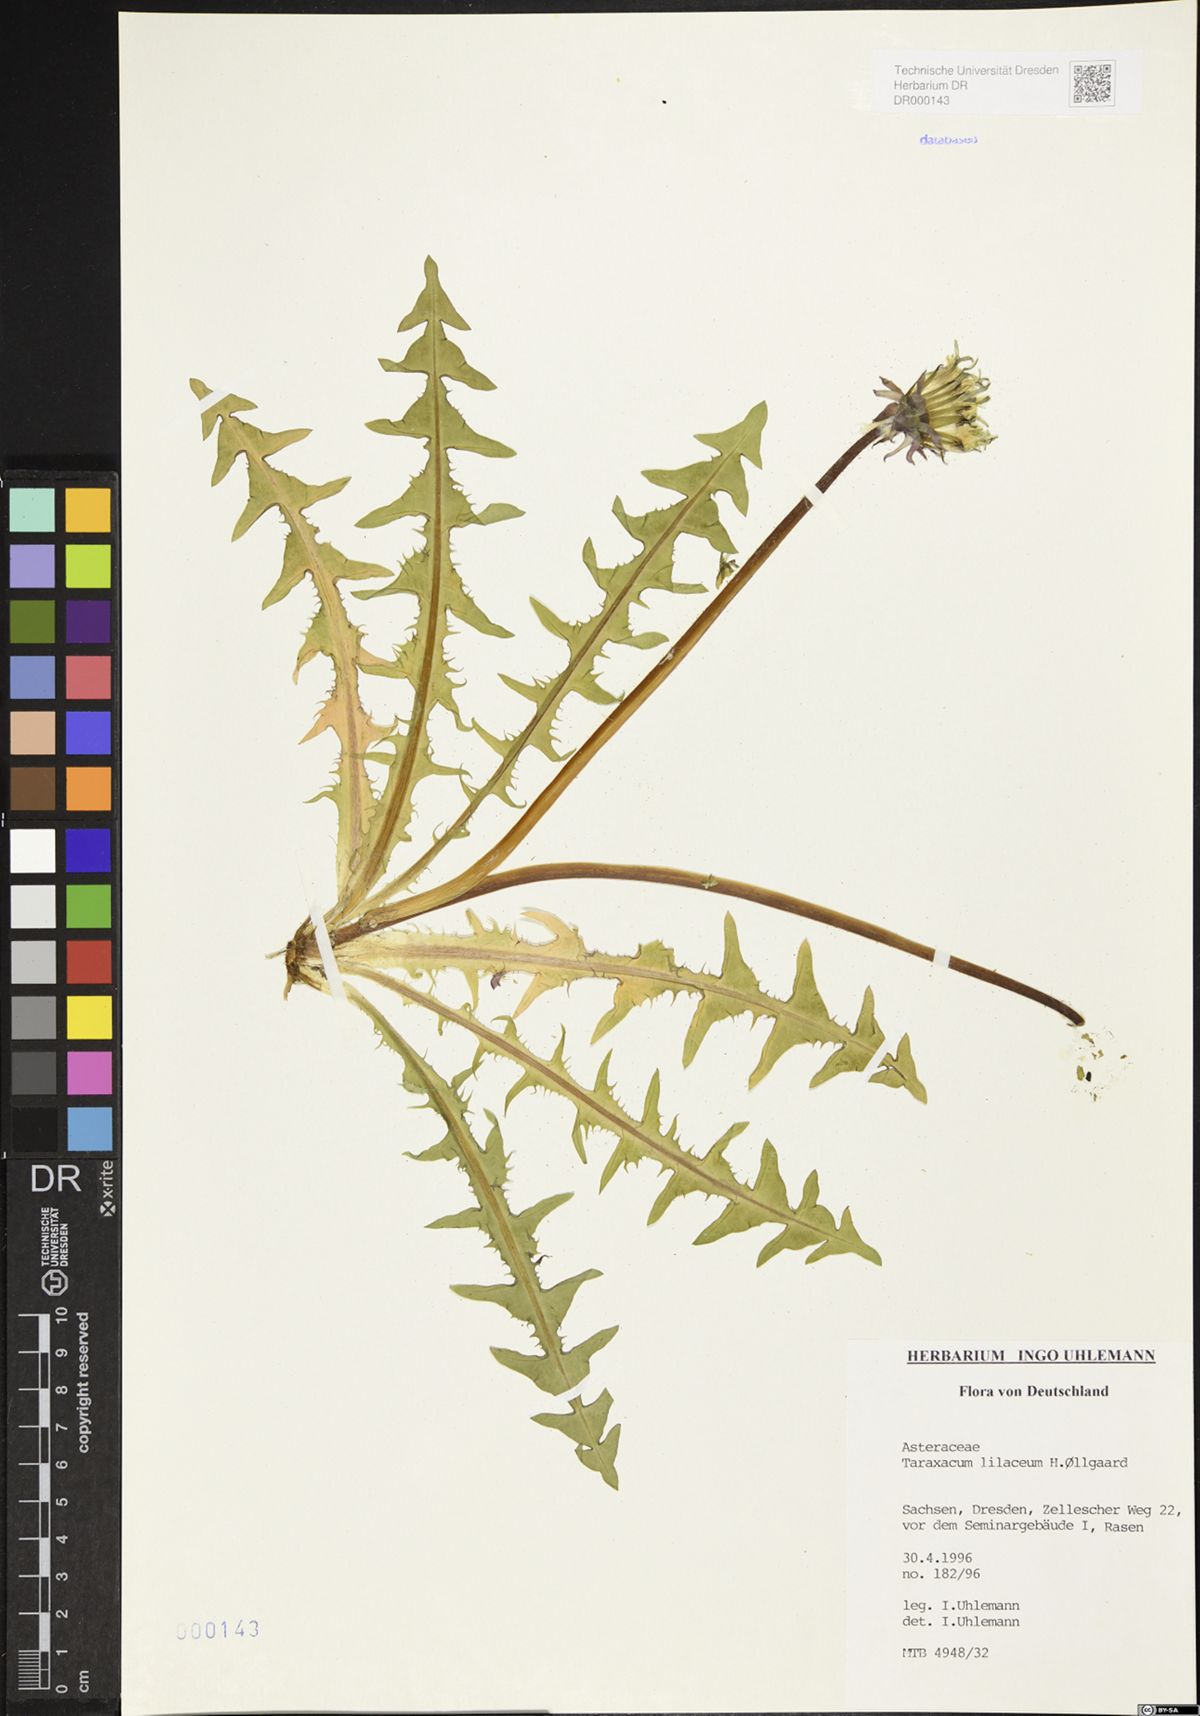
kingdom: Plantae
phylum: Tracheophyta
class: Magnoliopsida
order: Asterales
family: Asteraceae
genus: Taraxacum
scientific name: Taraxacum floccosum
